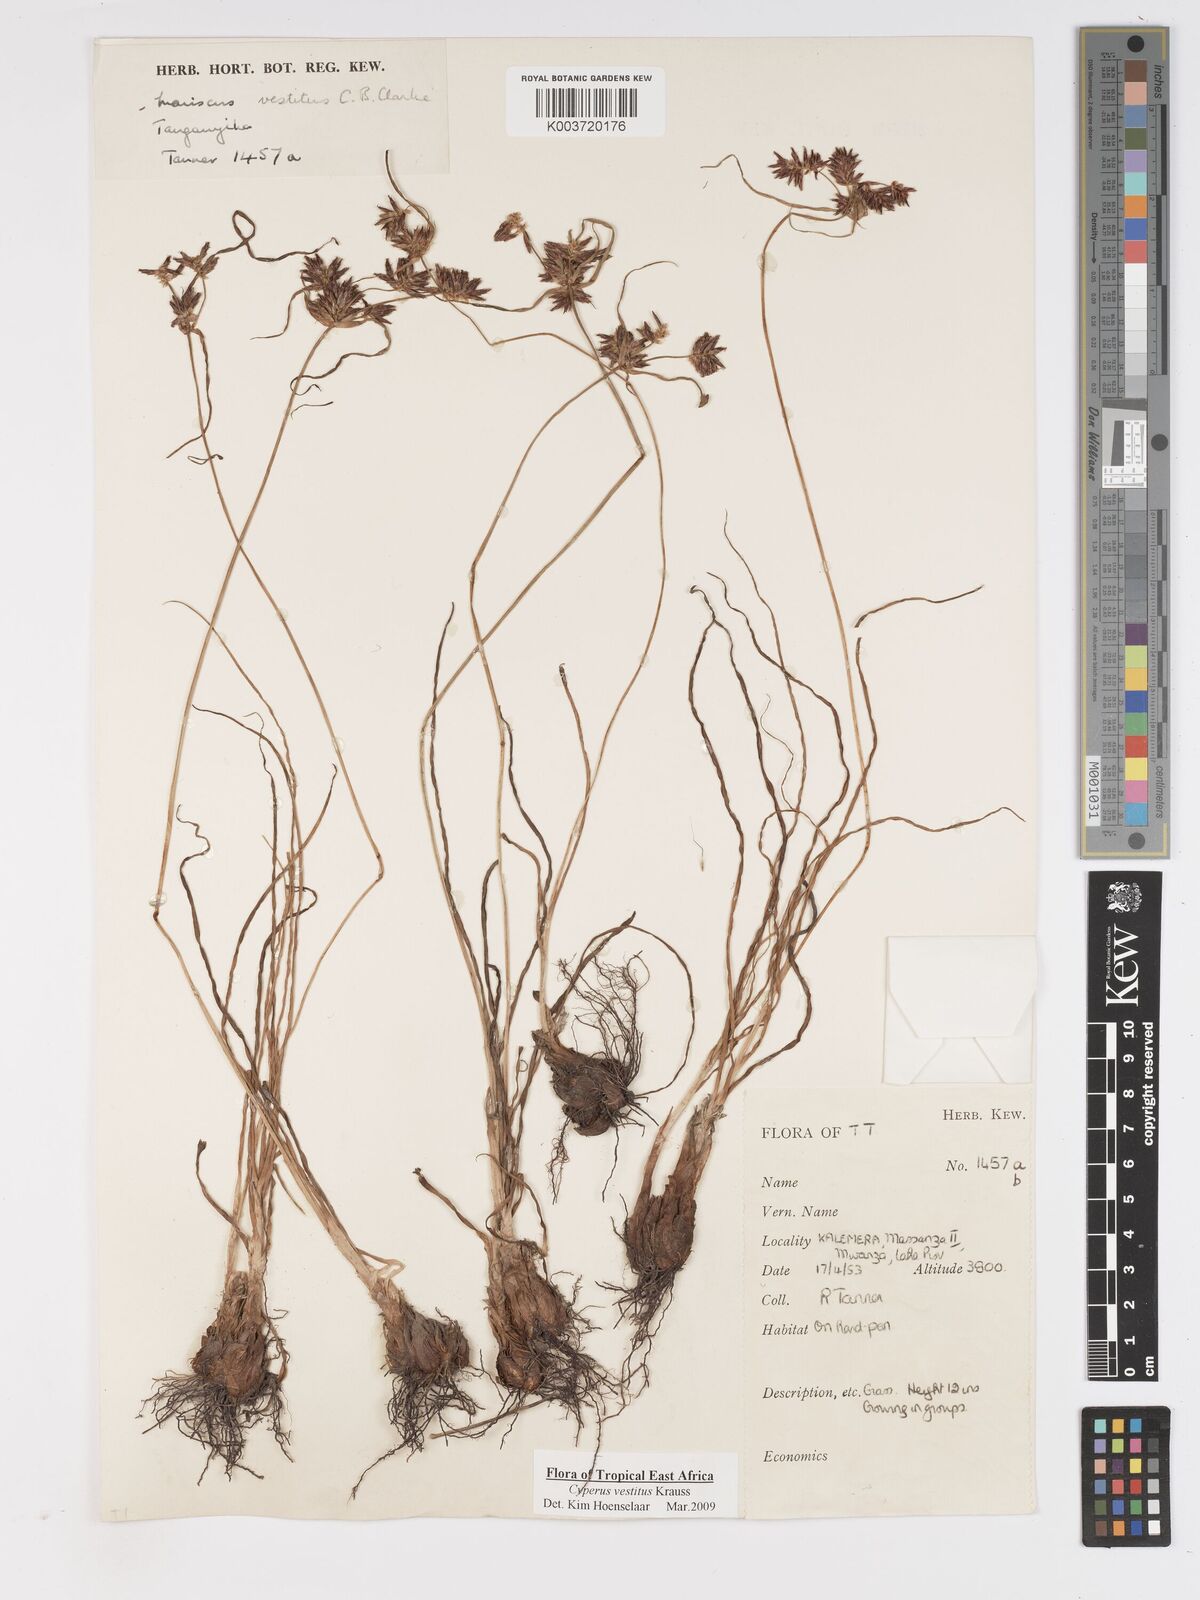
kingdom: Plantae
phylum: Tracheophyta
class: Liliopsida
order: Poales
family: Cyperaceae
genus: Cyperus
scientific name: Cyperus vestitus
